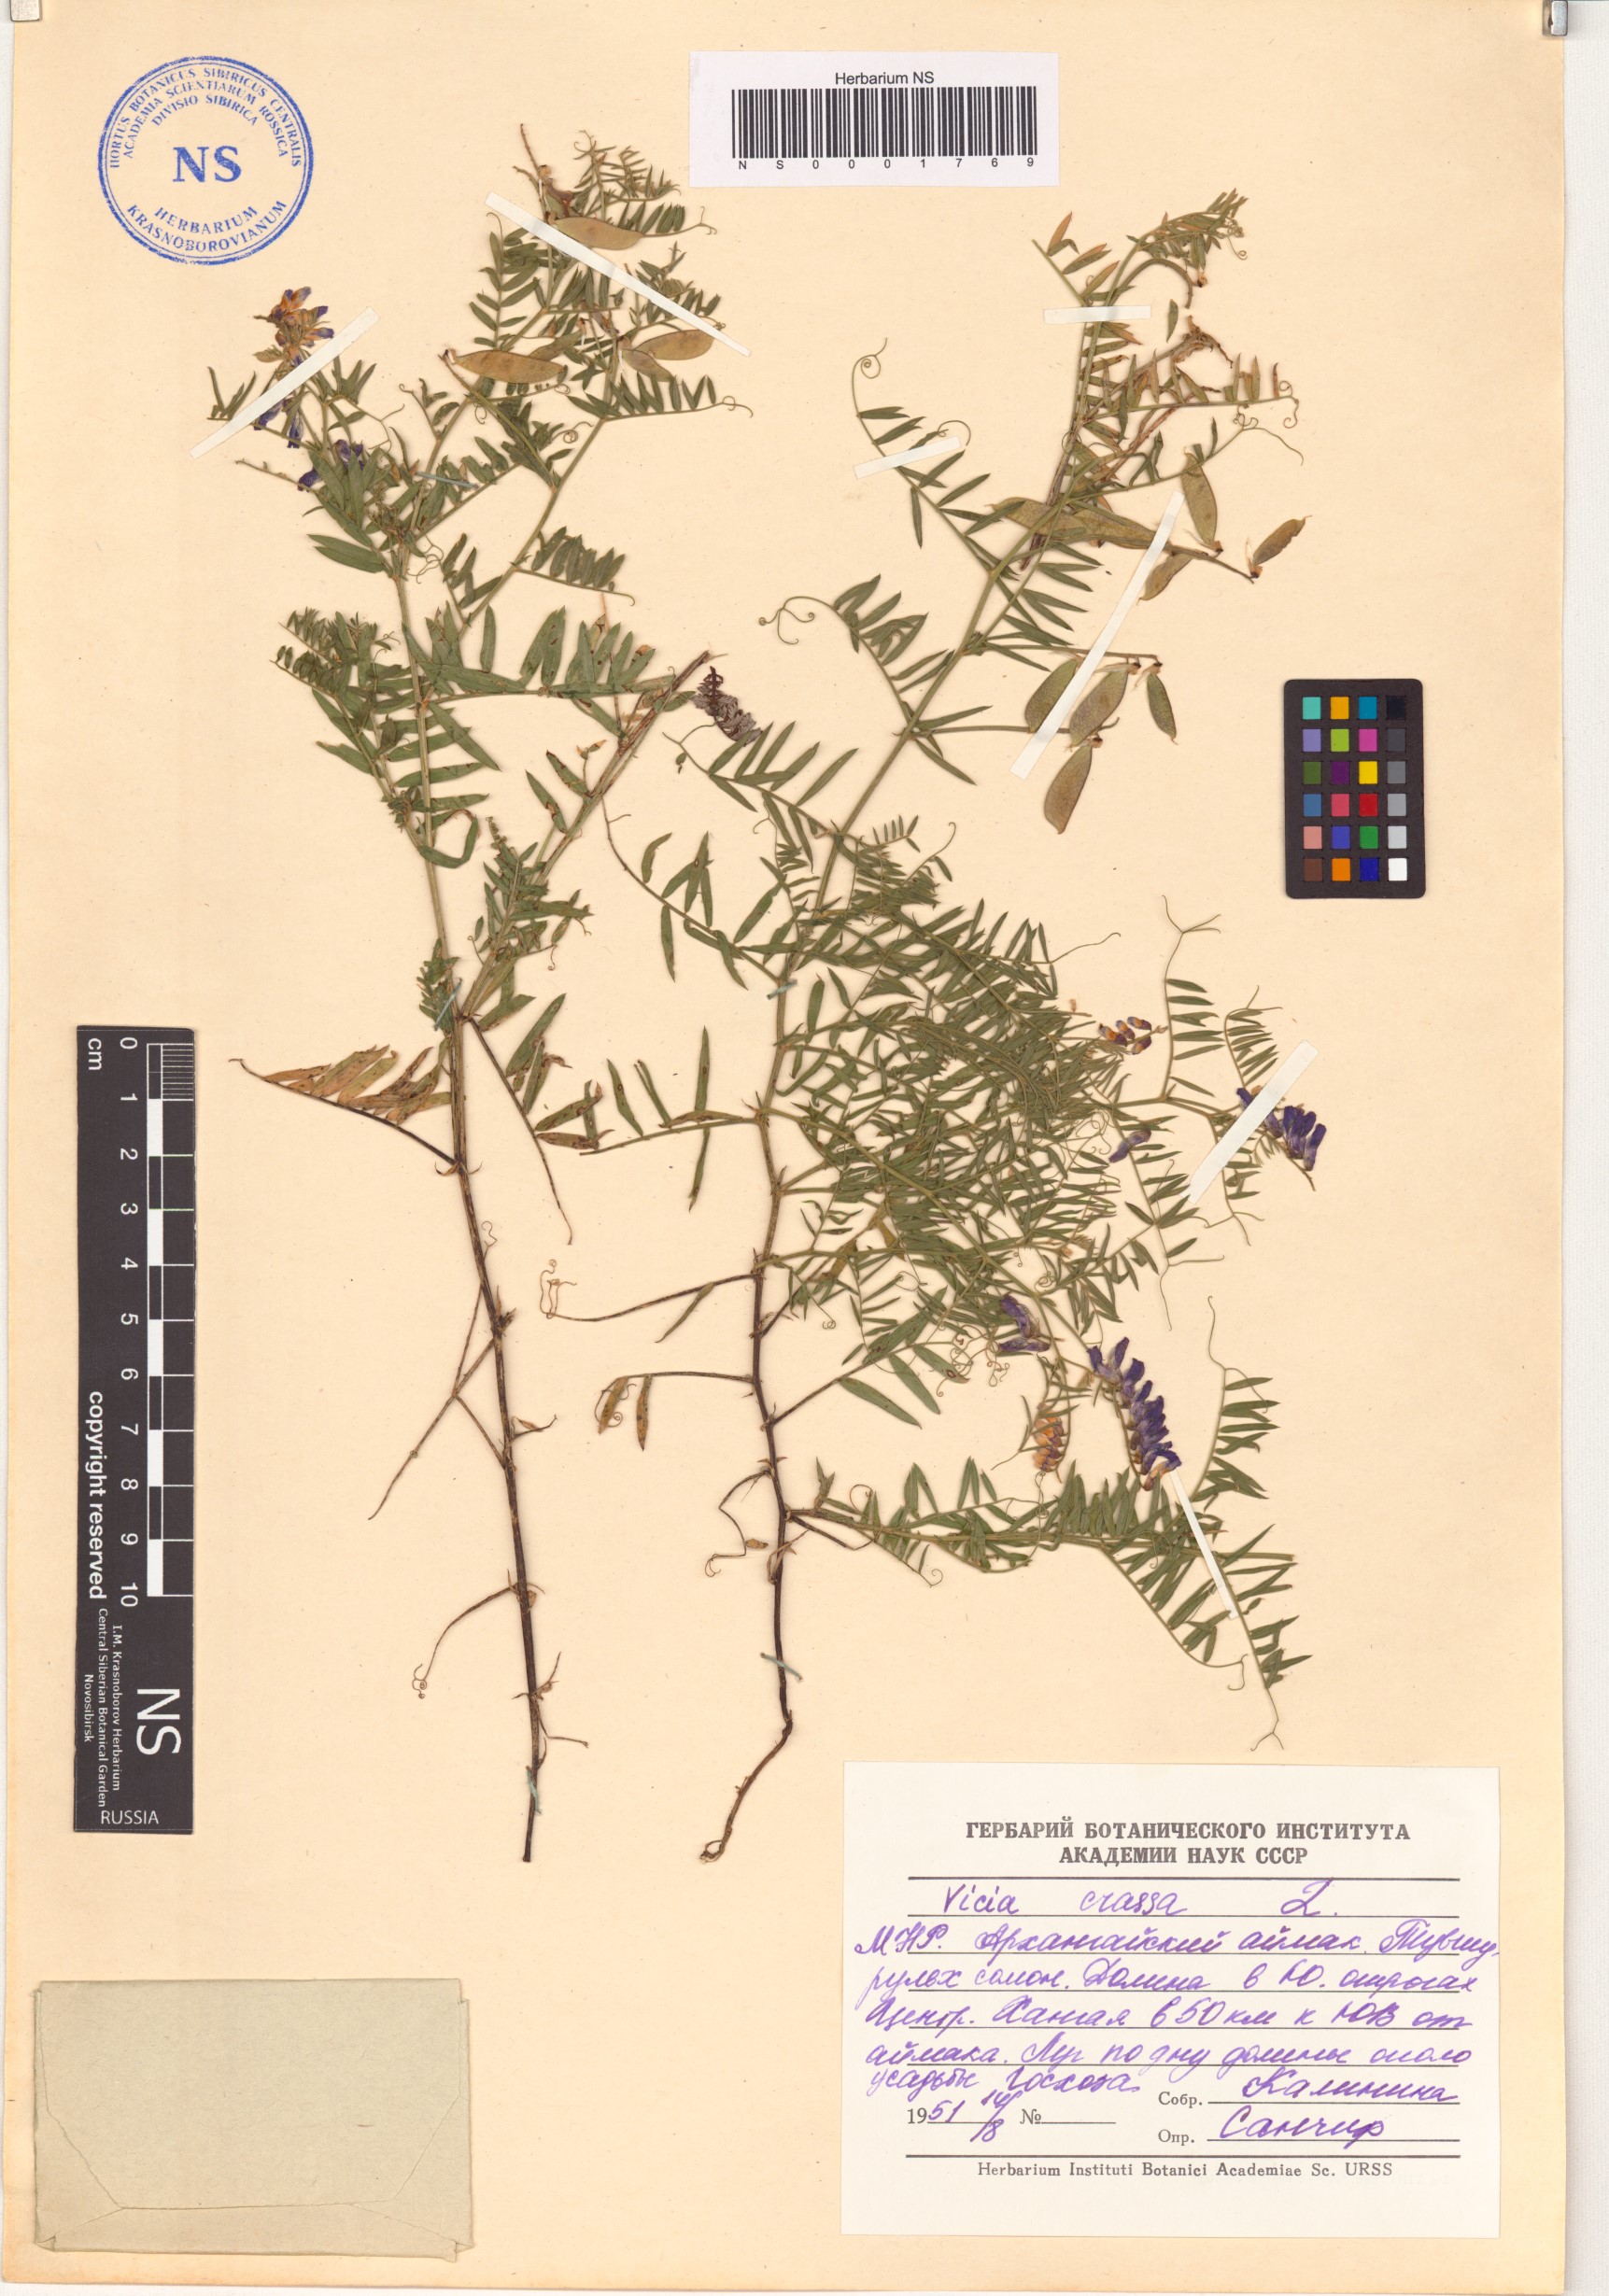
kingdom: Plantae
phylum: Tracheophyta
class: Magnoliopsida
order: Fabales
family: Fabaceae
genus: Vicia
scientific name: Vicia cracca
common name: Bird vetch
